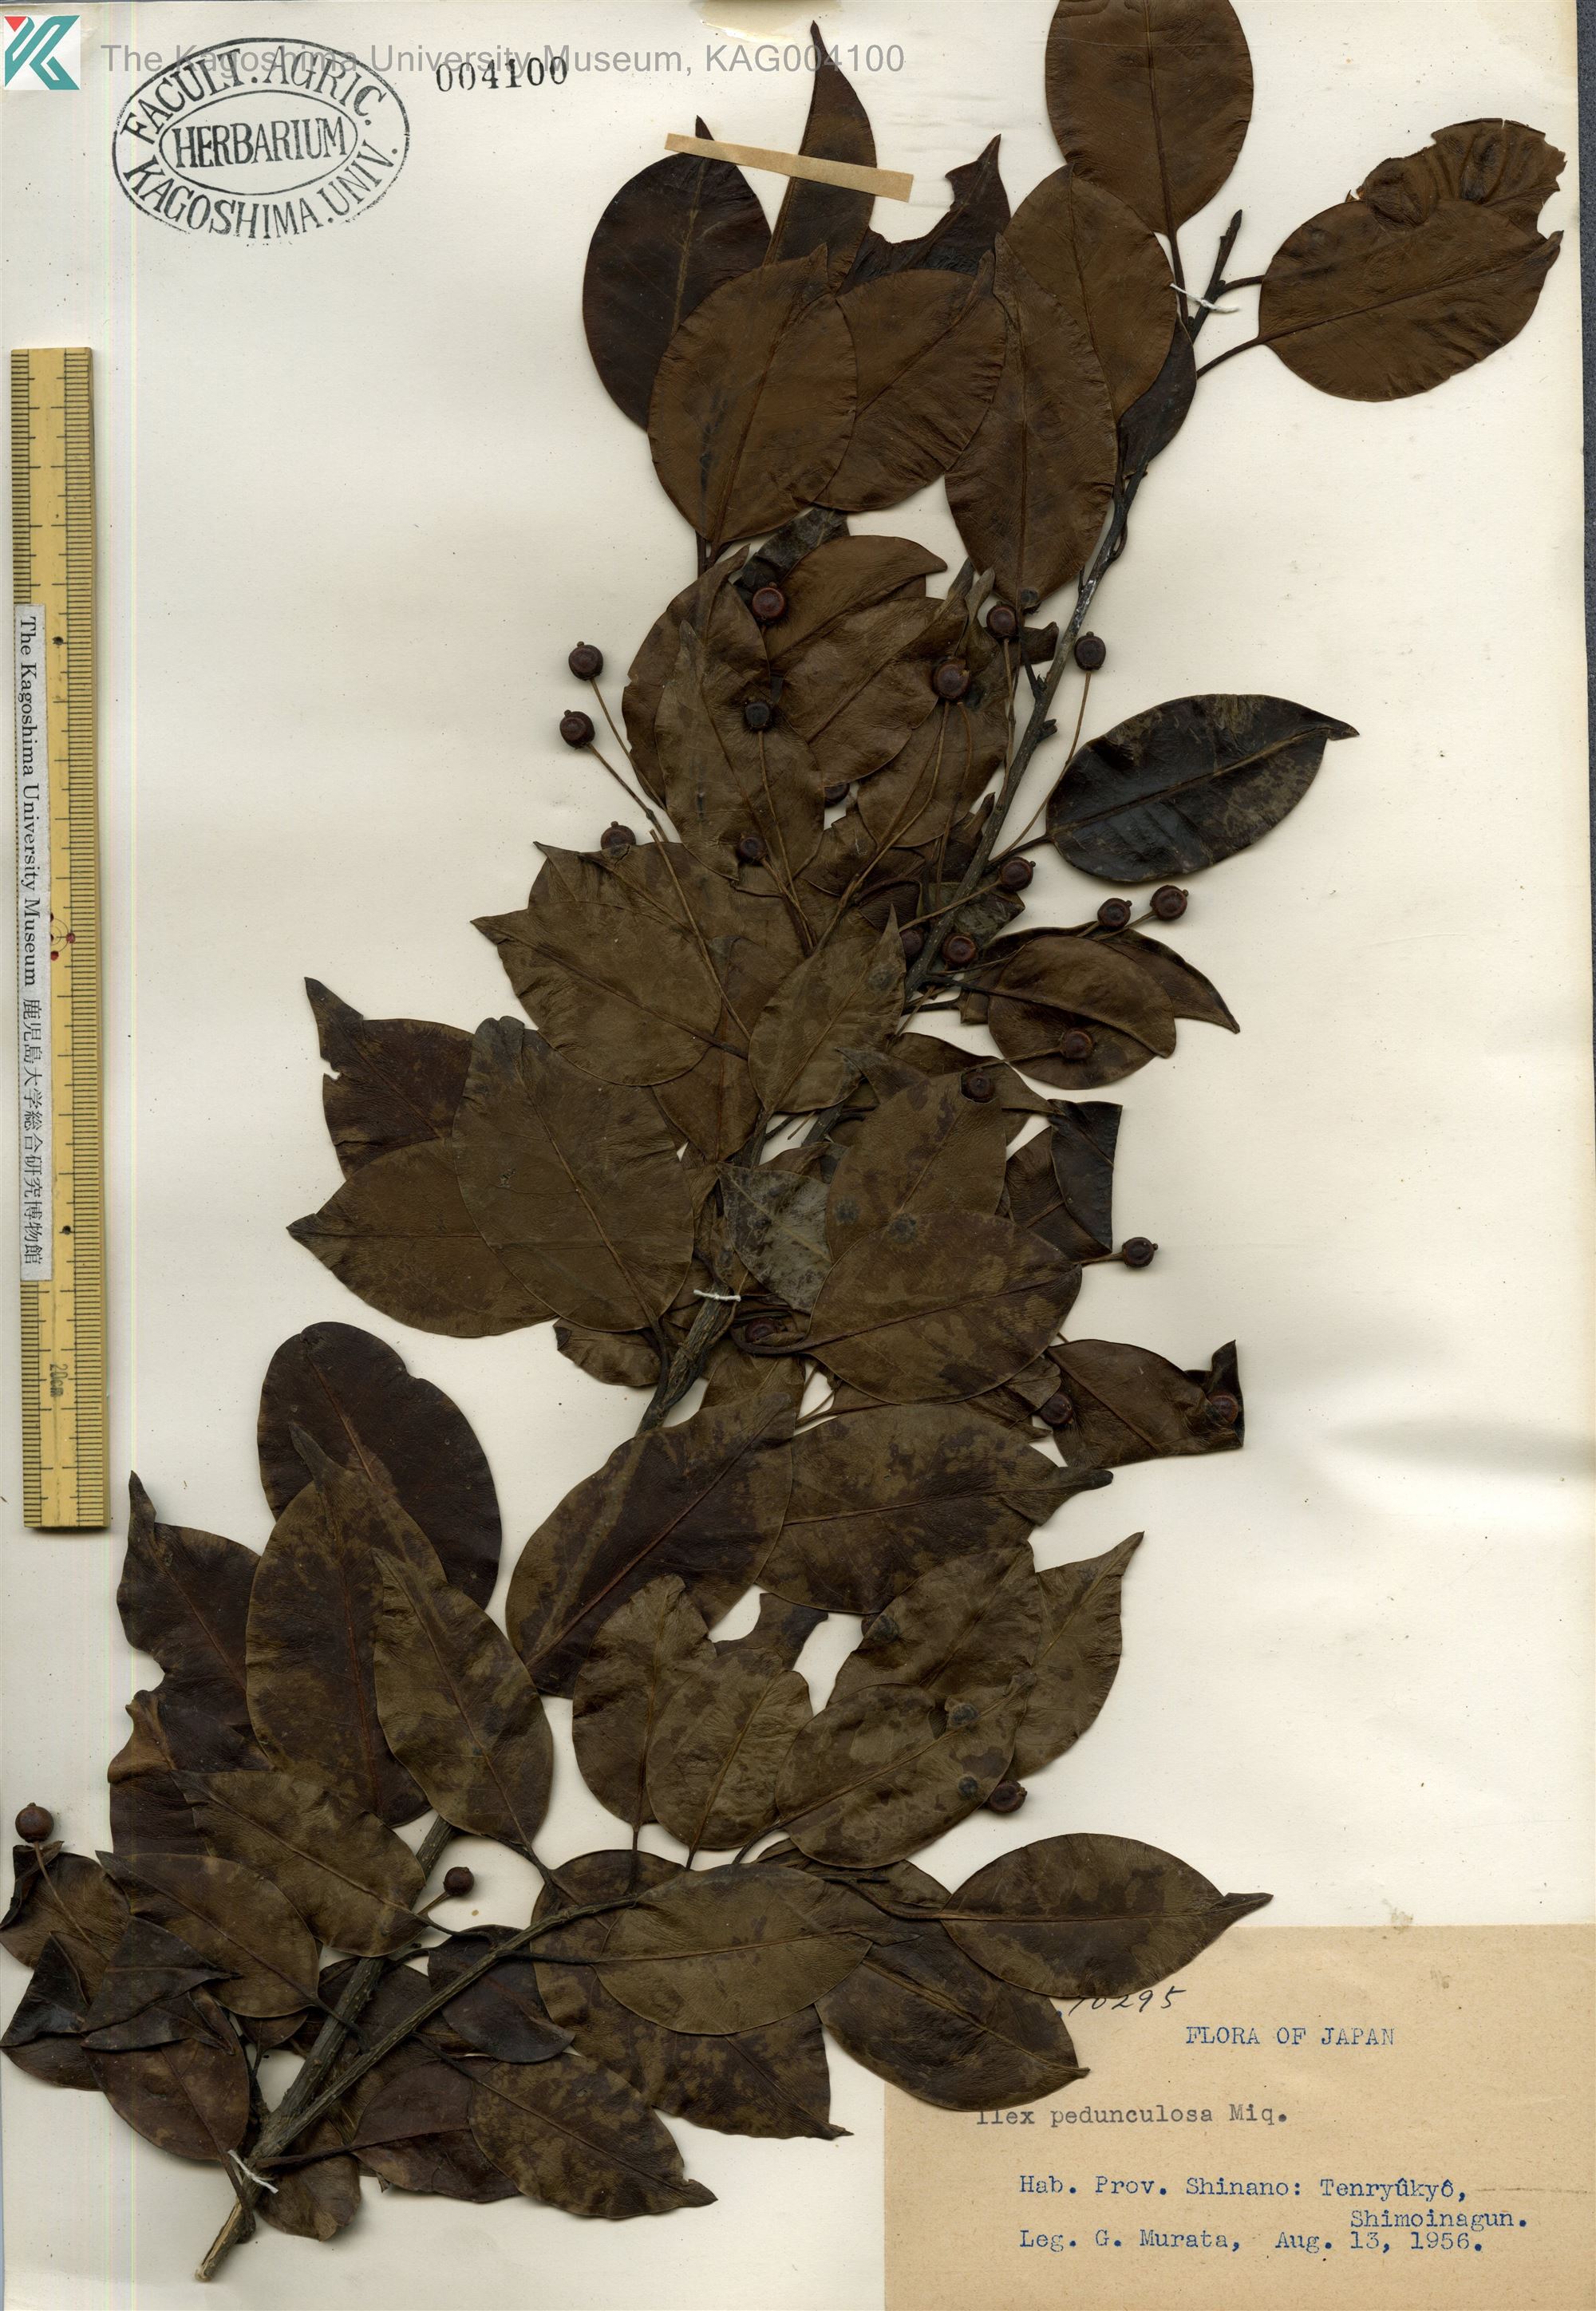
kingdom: Plantae
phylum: Tracheophyta
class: Magnoliopsida
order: Aquifoliales
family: Aquifoliaceae
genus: Ilex
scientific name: Ilex pedunculosa
